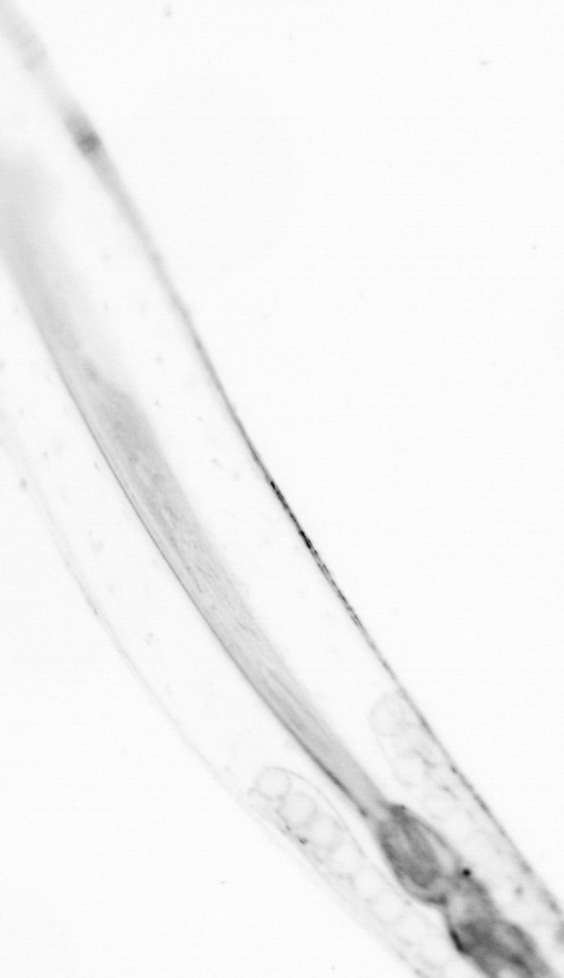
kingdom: Animalia
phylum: Chaetognatha
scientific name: Chaetognatha
